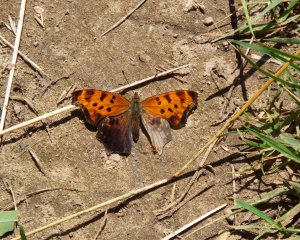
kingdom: Animalia
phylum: Arthropoda
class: Insecta
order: Lepidoptera
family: Nymphalidae
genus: Polygonia
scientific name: Polygonia comma
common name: Eastern Comma
